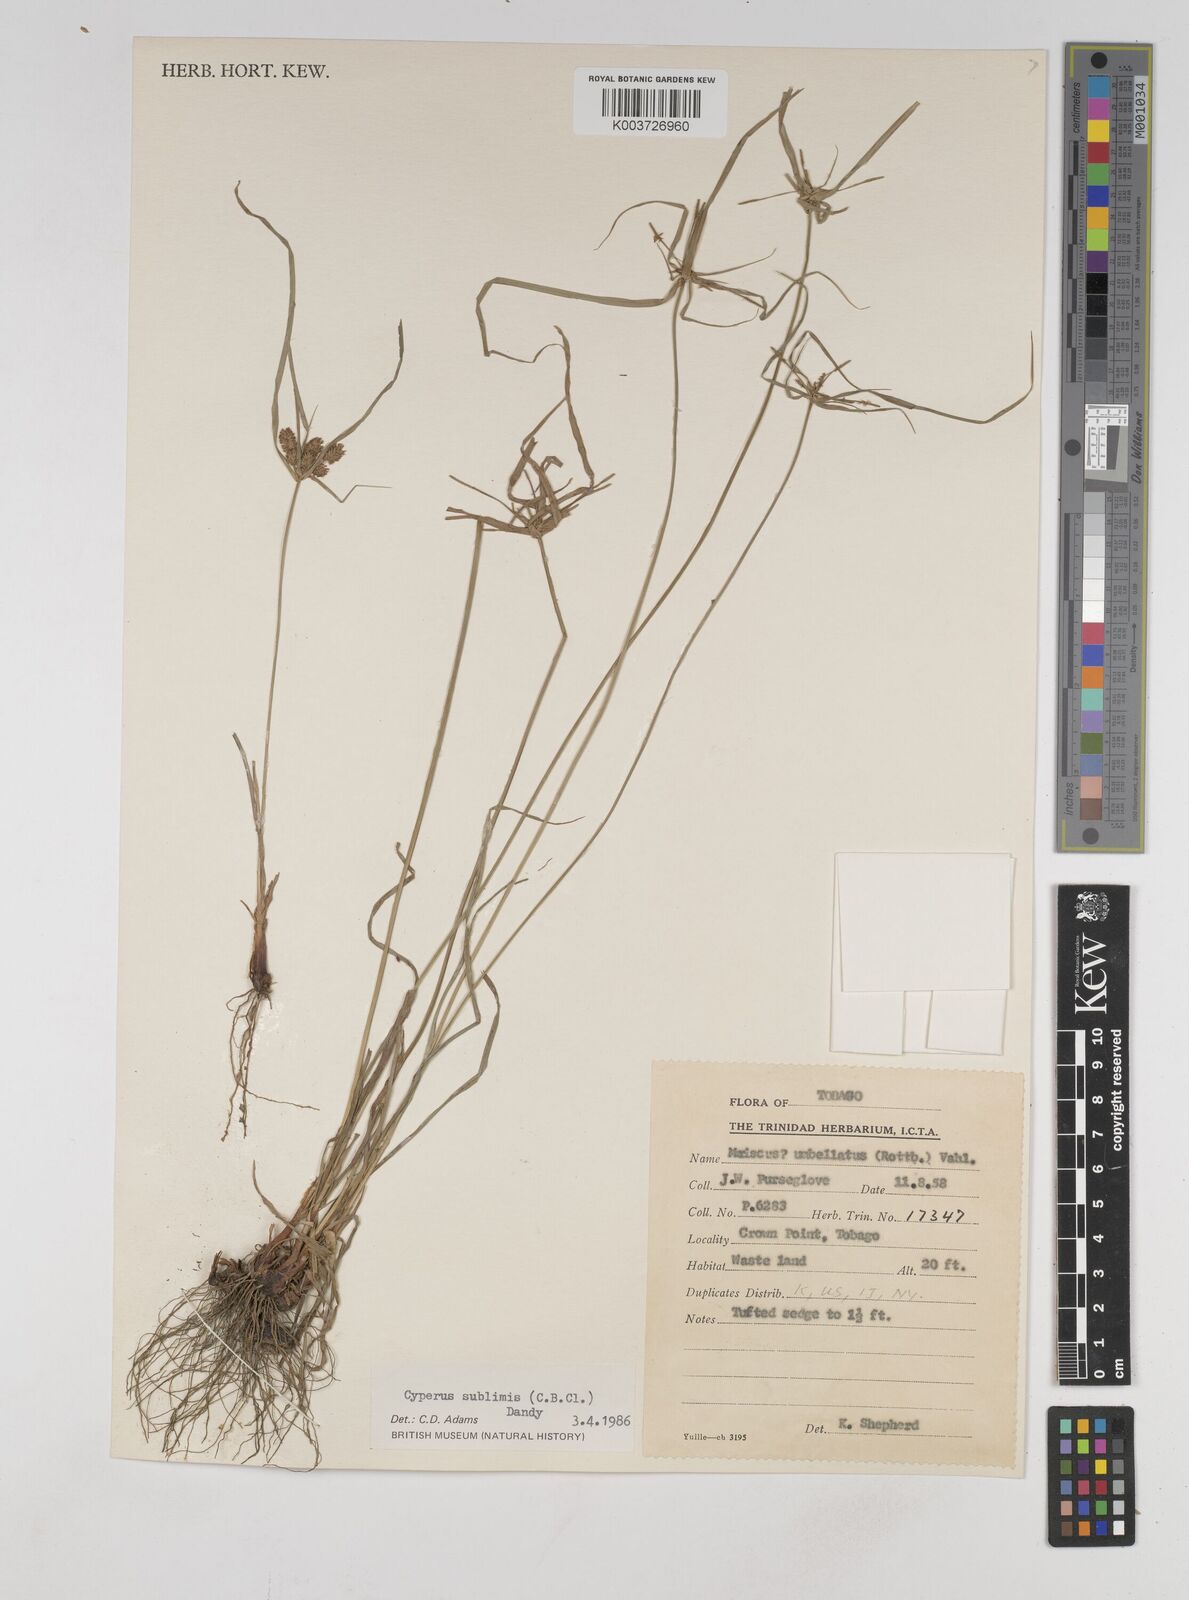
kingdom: Plantae
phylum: Tracheophyta
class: Liliopsida
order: Poales
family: Cyperaceae
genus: Cyperus
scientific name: Cyperus cyperoides
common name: Pacific island flat sedge
